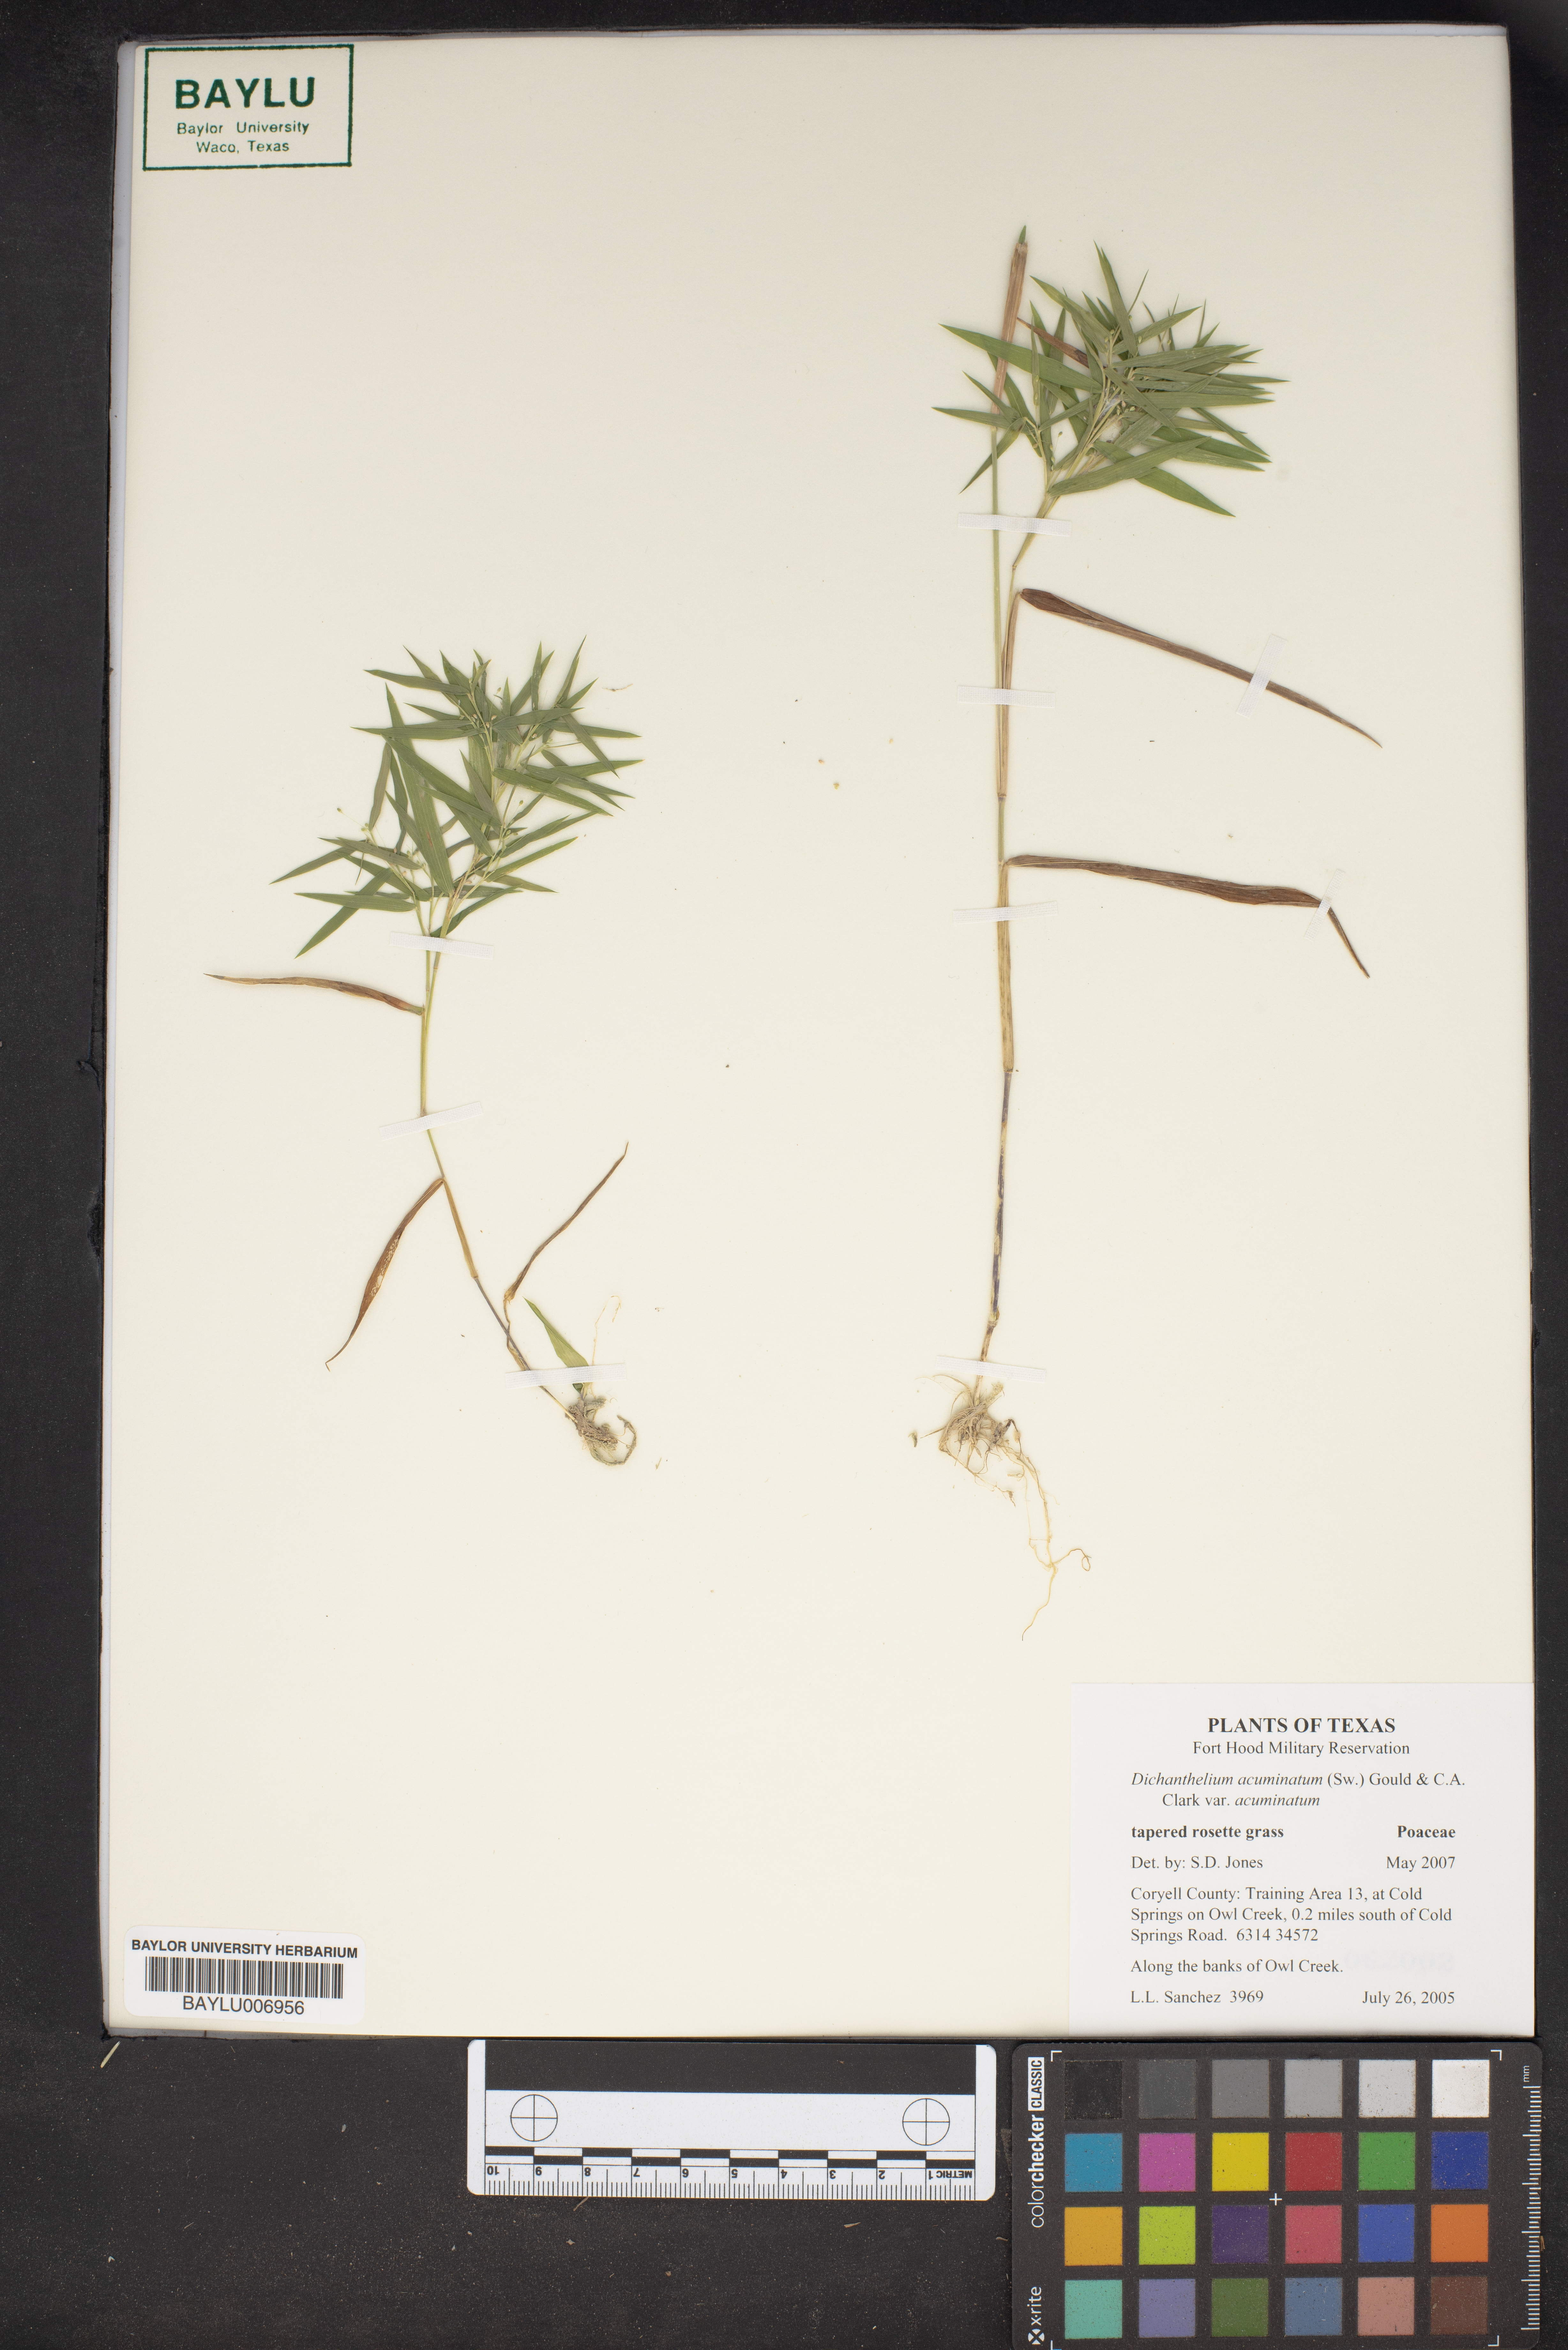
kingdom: Plantae
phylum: Tracheophyta
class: Liliopsida
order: Poales
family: Poaceae
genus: Dichanthelium
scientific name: Dichanthelium acuminatum
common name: Hairy panic grass
